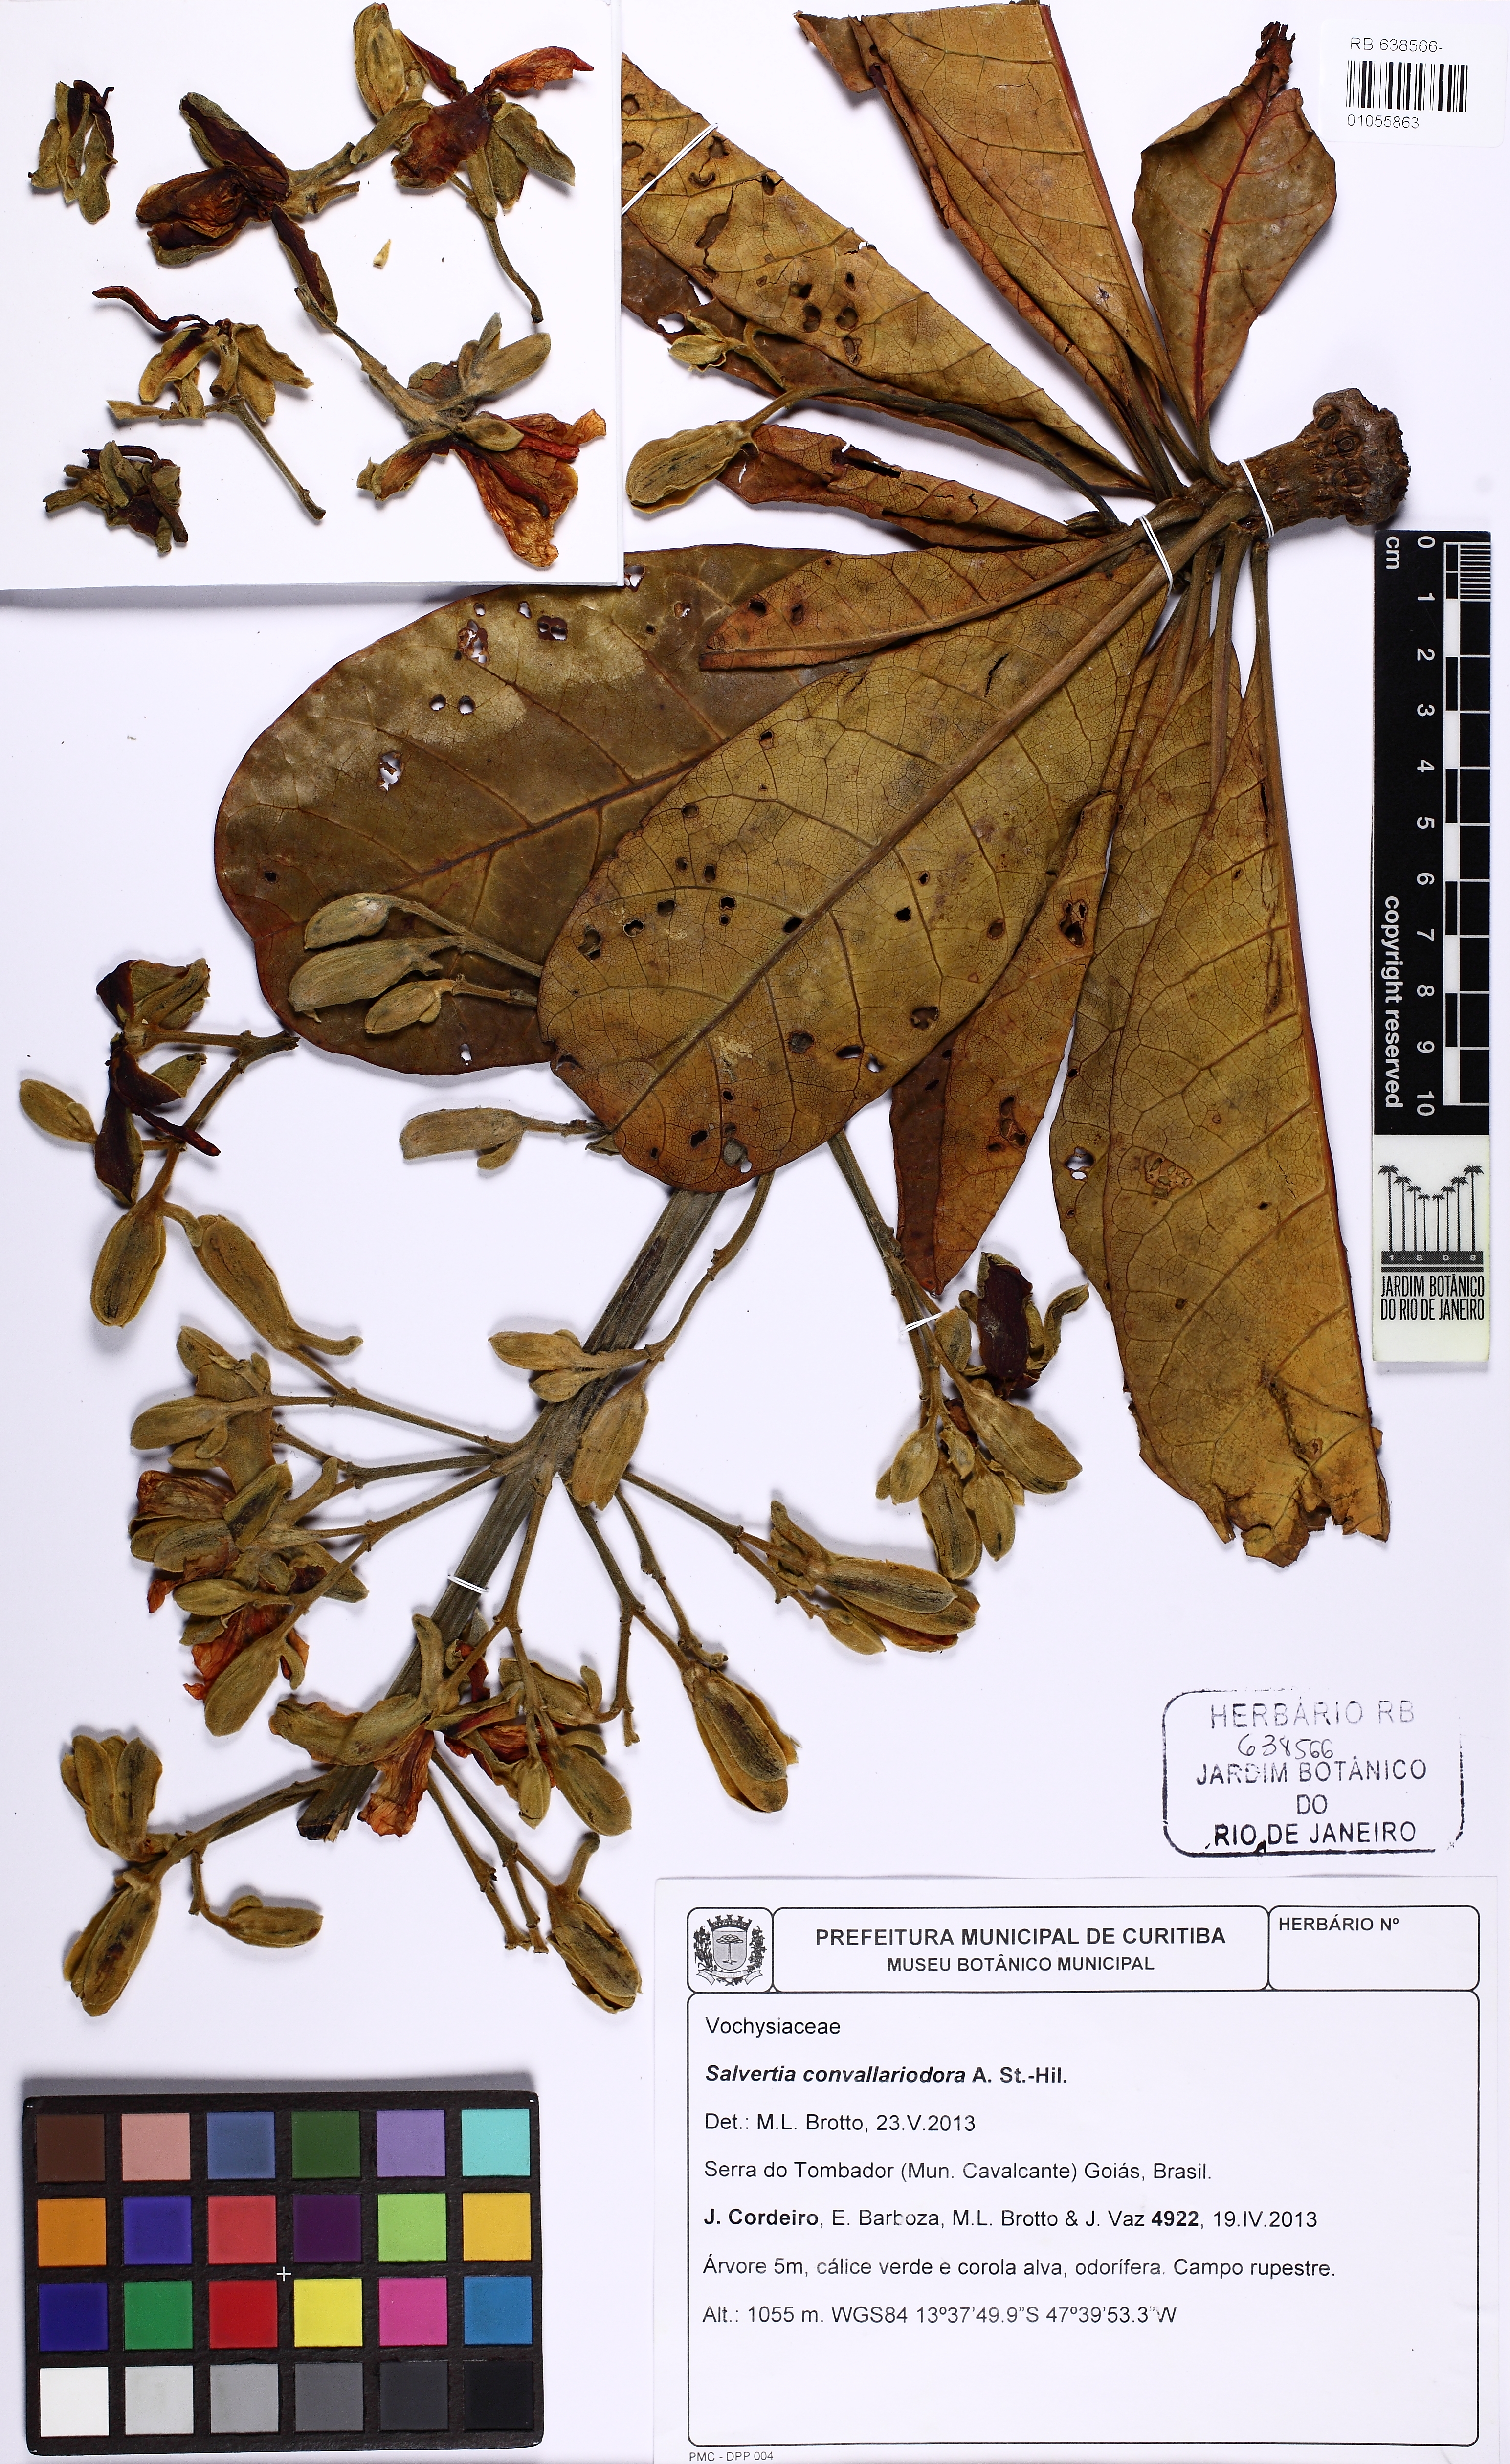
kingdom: Plantae
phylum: Tracheophyta
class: Magnoliopsida
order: Myrtales
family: Vochysiaceae
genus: Salvertia
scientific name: Salvertia convallariodora
